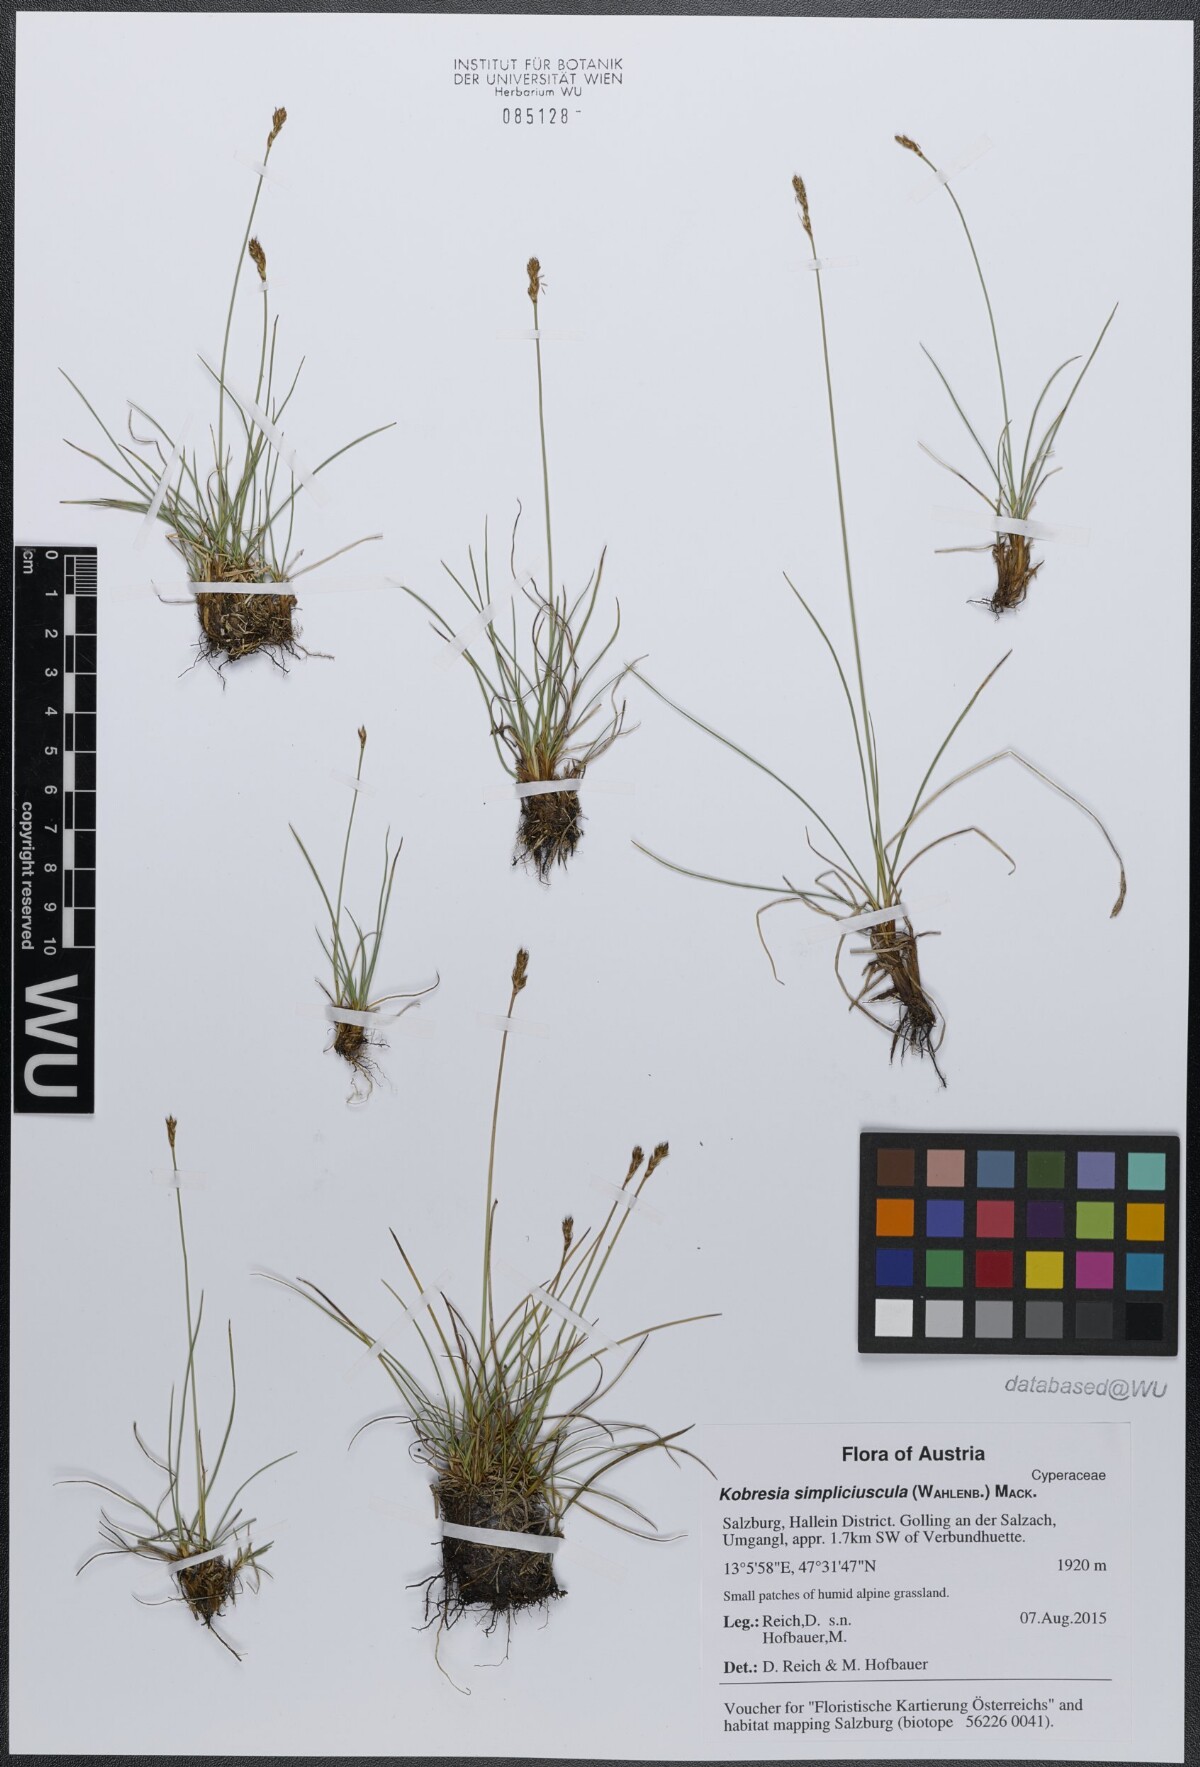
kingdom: Plantae
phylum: Tracheophyta
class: Liliopsida
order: Poales
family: Cyperaceae
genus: Carex
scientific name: Carex simpliciuscula
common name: Simple bog sedge
